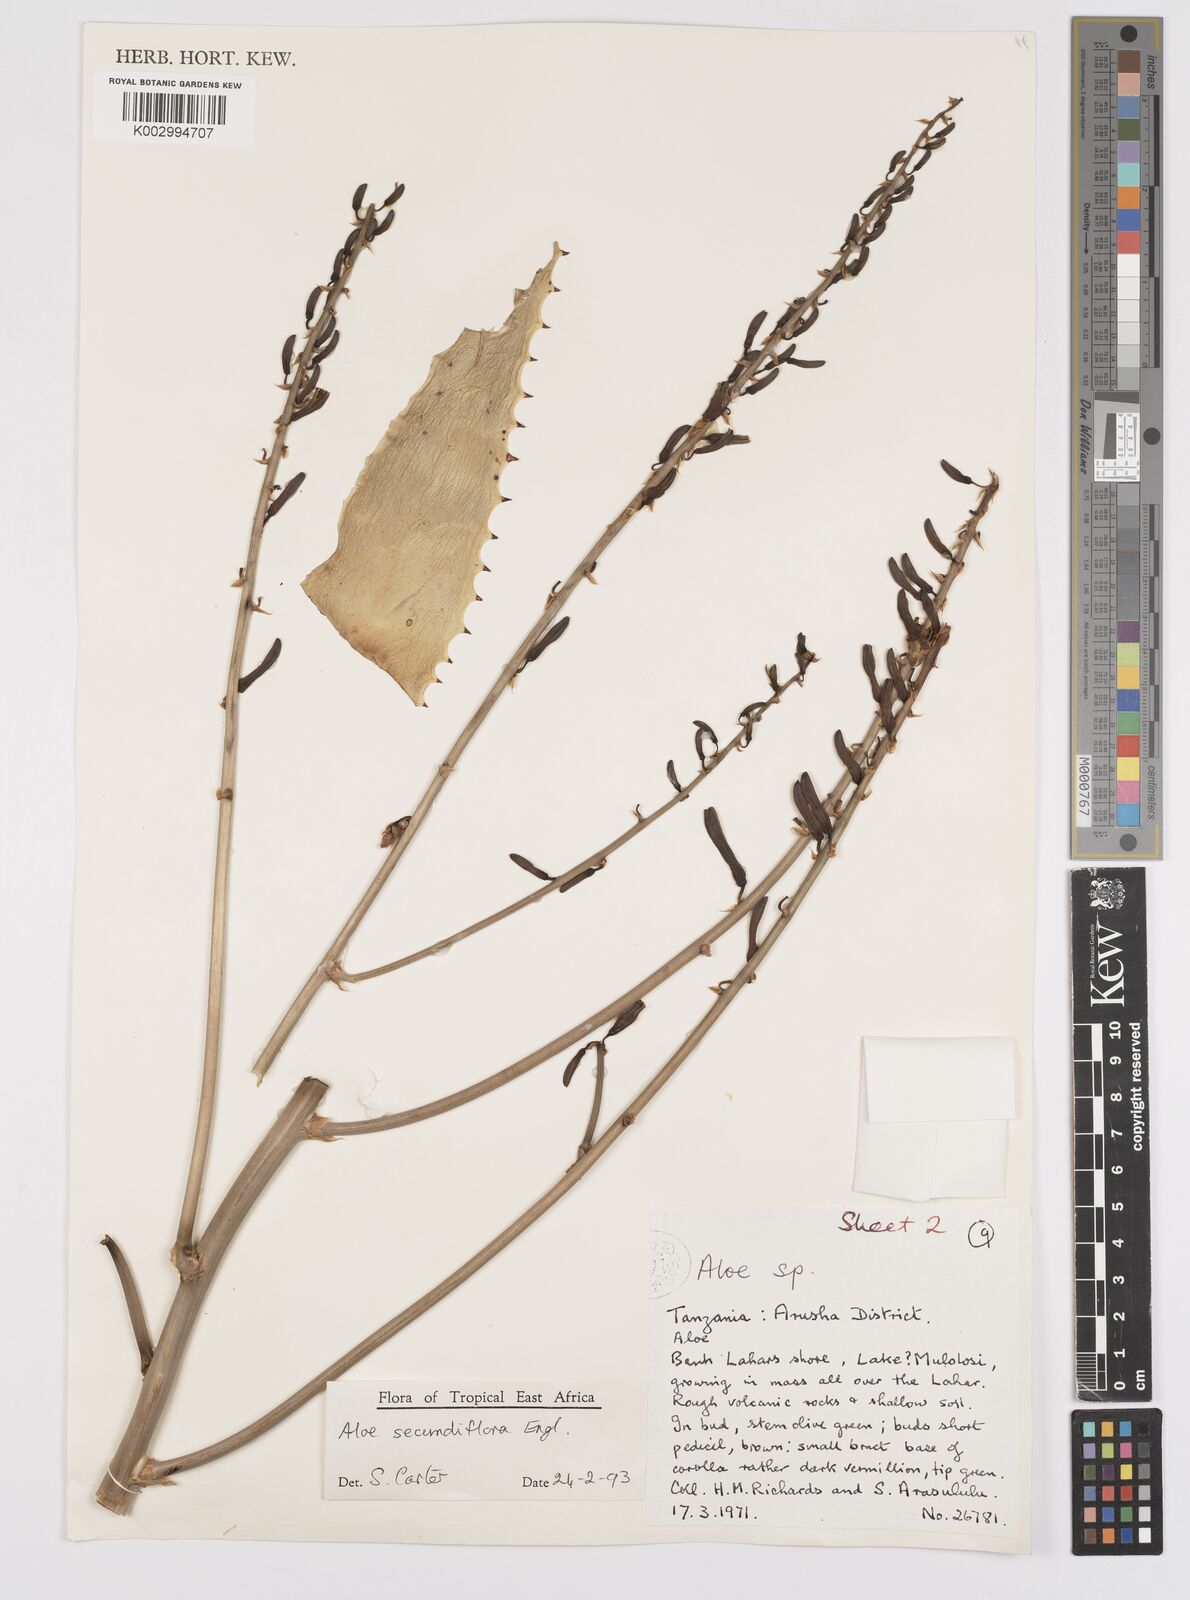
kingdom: Plantae
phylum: Tracheophyta
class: Liliopsida
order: Asparagales
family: Asphodelaceae
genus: Aloe
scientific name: Aloe secundiflora
